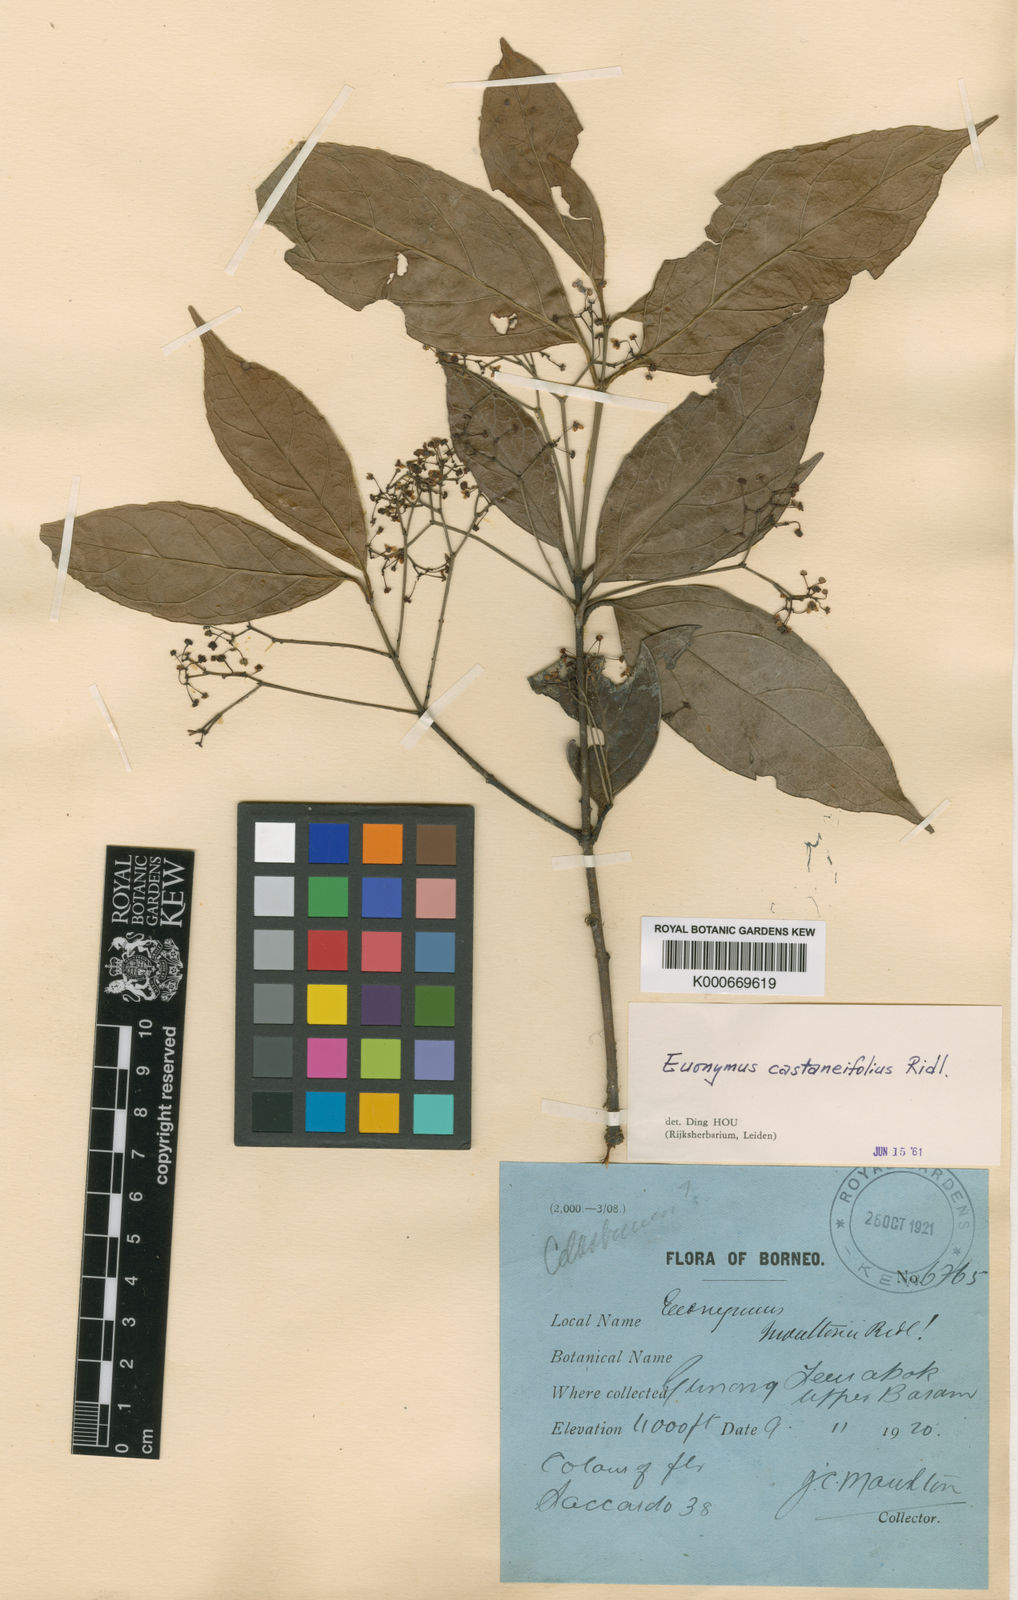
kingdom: Plantae
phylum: Tracheophyta
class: Magnoliopsida
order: Celastrales
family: Celastraceae
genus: Euonymus
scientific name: Euonymus castaneifolius
